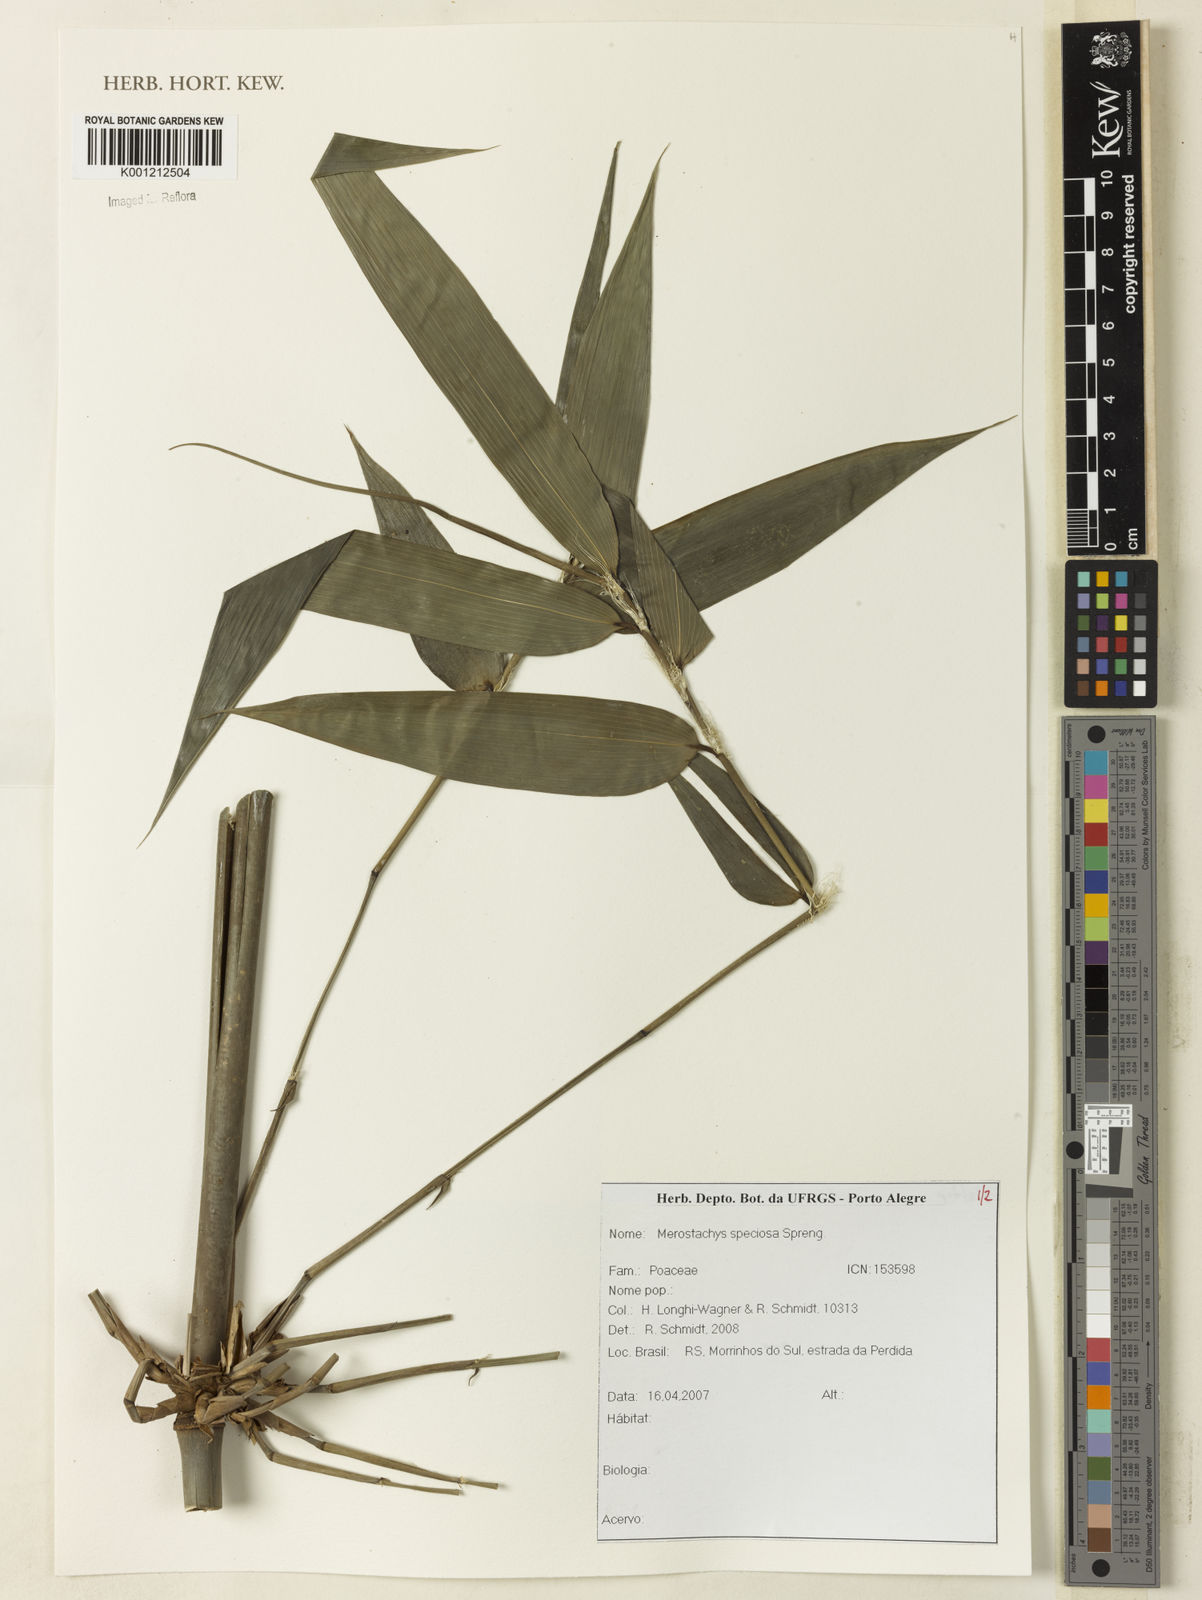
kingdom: Plantae
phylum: Tracheophyta
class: Liliopsida
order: Poales
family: Poaceae
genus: Merostachys
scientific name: Merostachys speciosa
